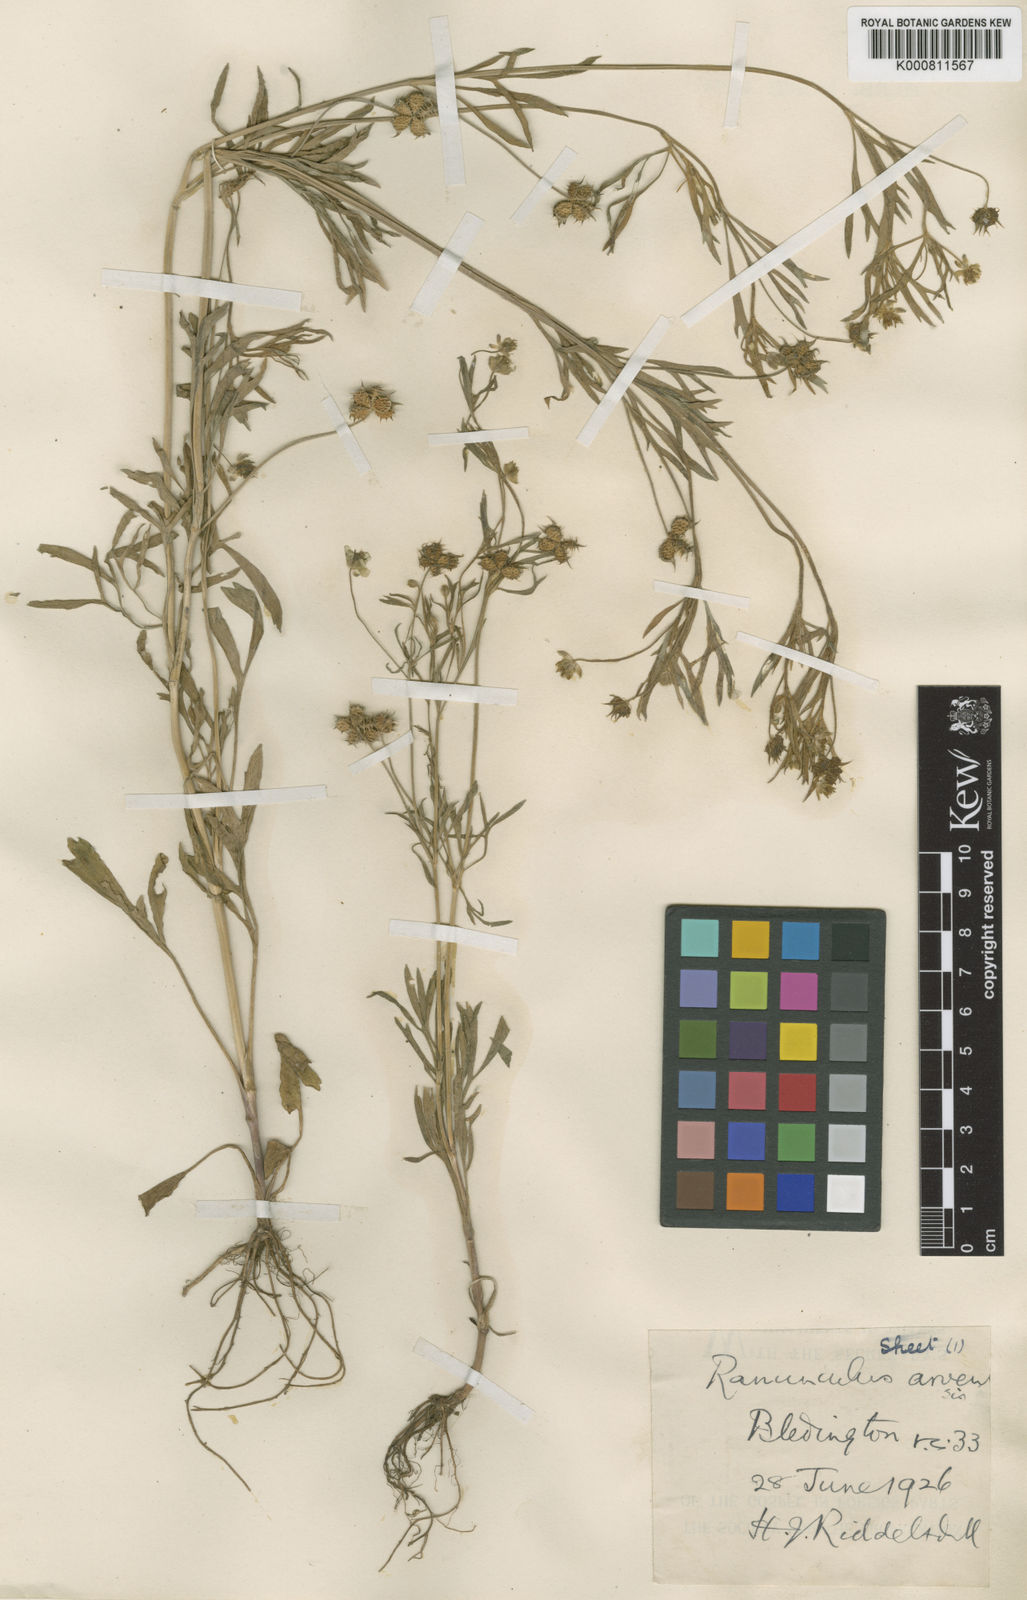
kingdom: Plantae
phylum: Tracheophyta
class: Magnoliopsida
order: Ranunculales
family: Ranunculaceae
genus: Ranunculus
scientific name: Ranunculus arvensis
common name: Corn buttercup
